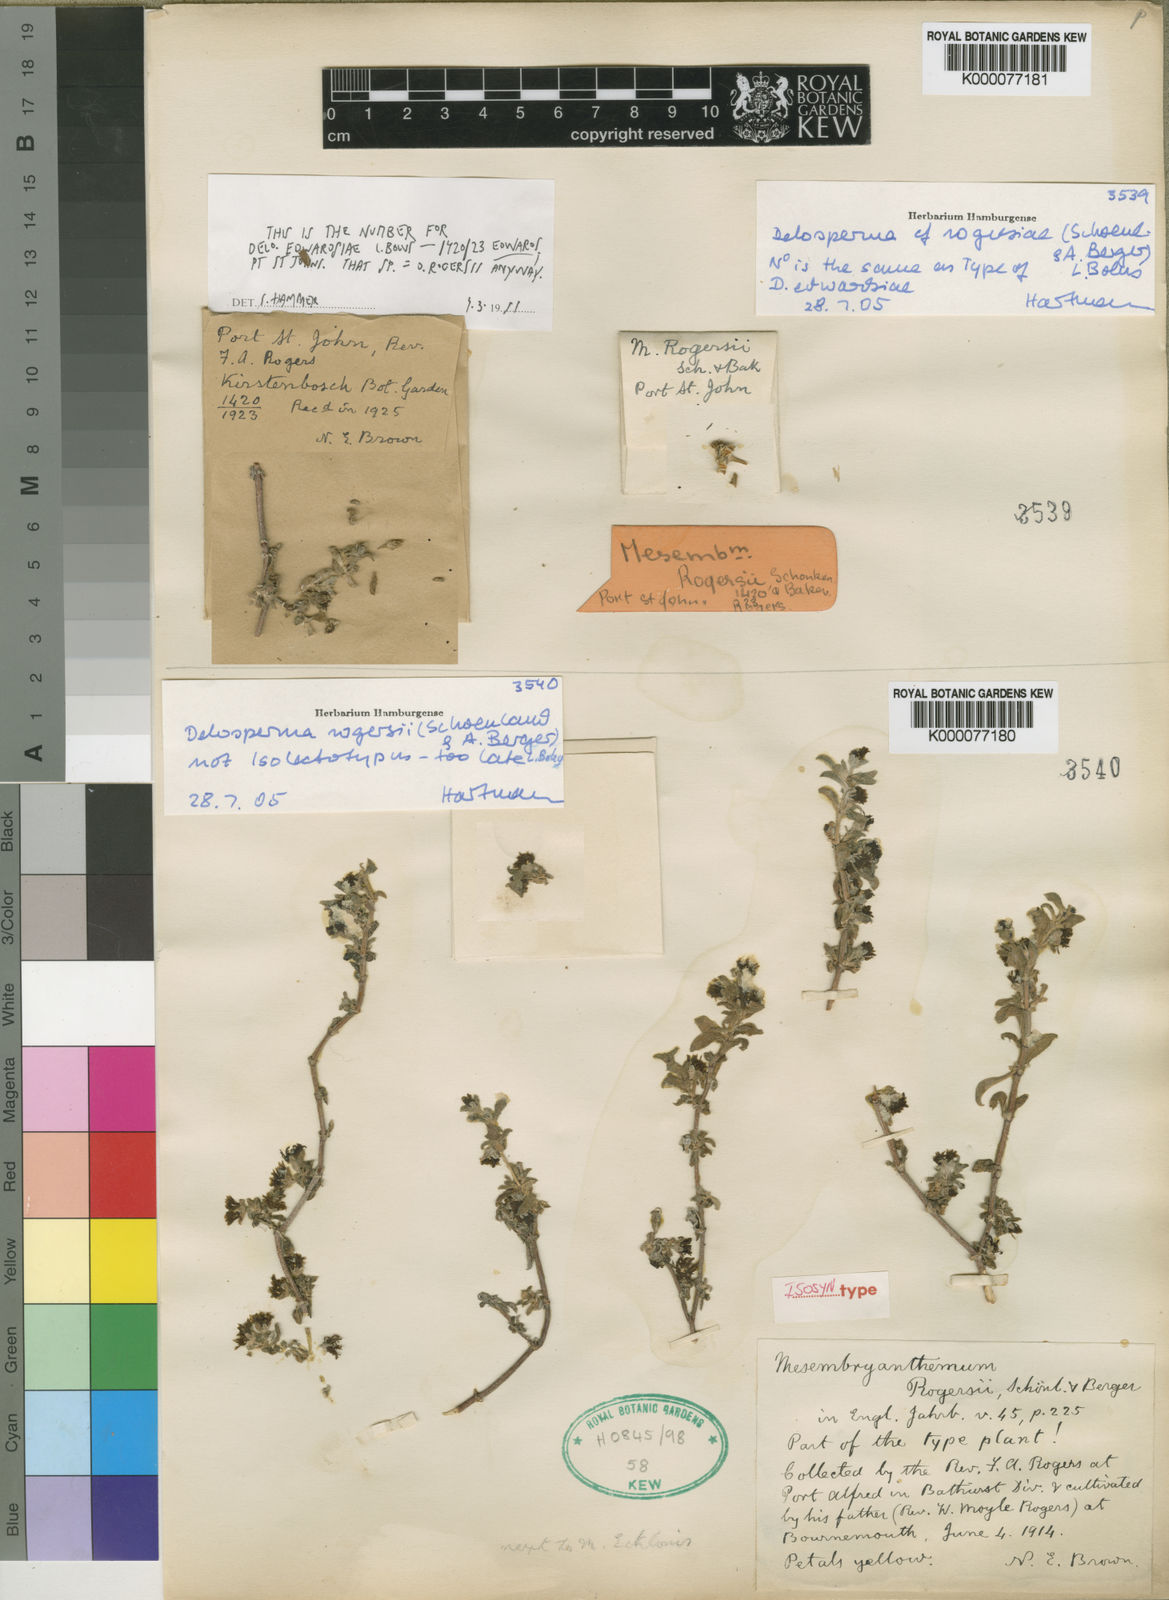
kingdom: Plantae
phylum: Tracheophyta
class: Magnoliopsida
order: Caryophyllales
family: Aizoaceae
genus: Delosperma
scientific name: Delosperma rogersii
